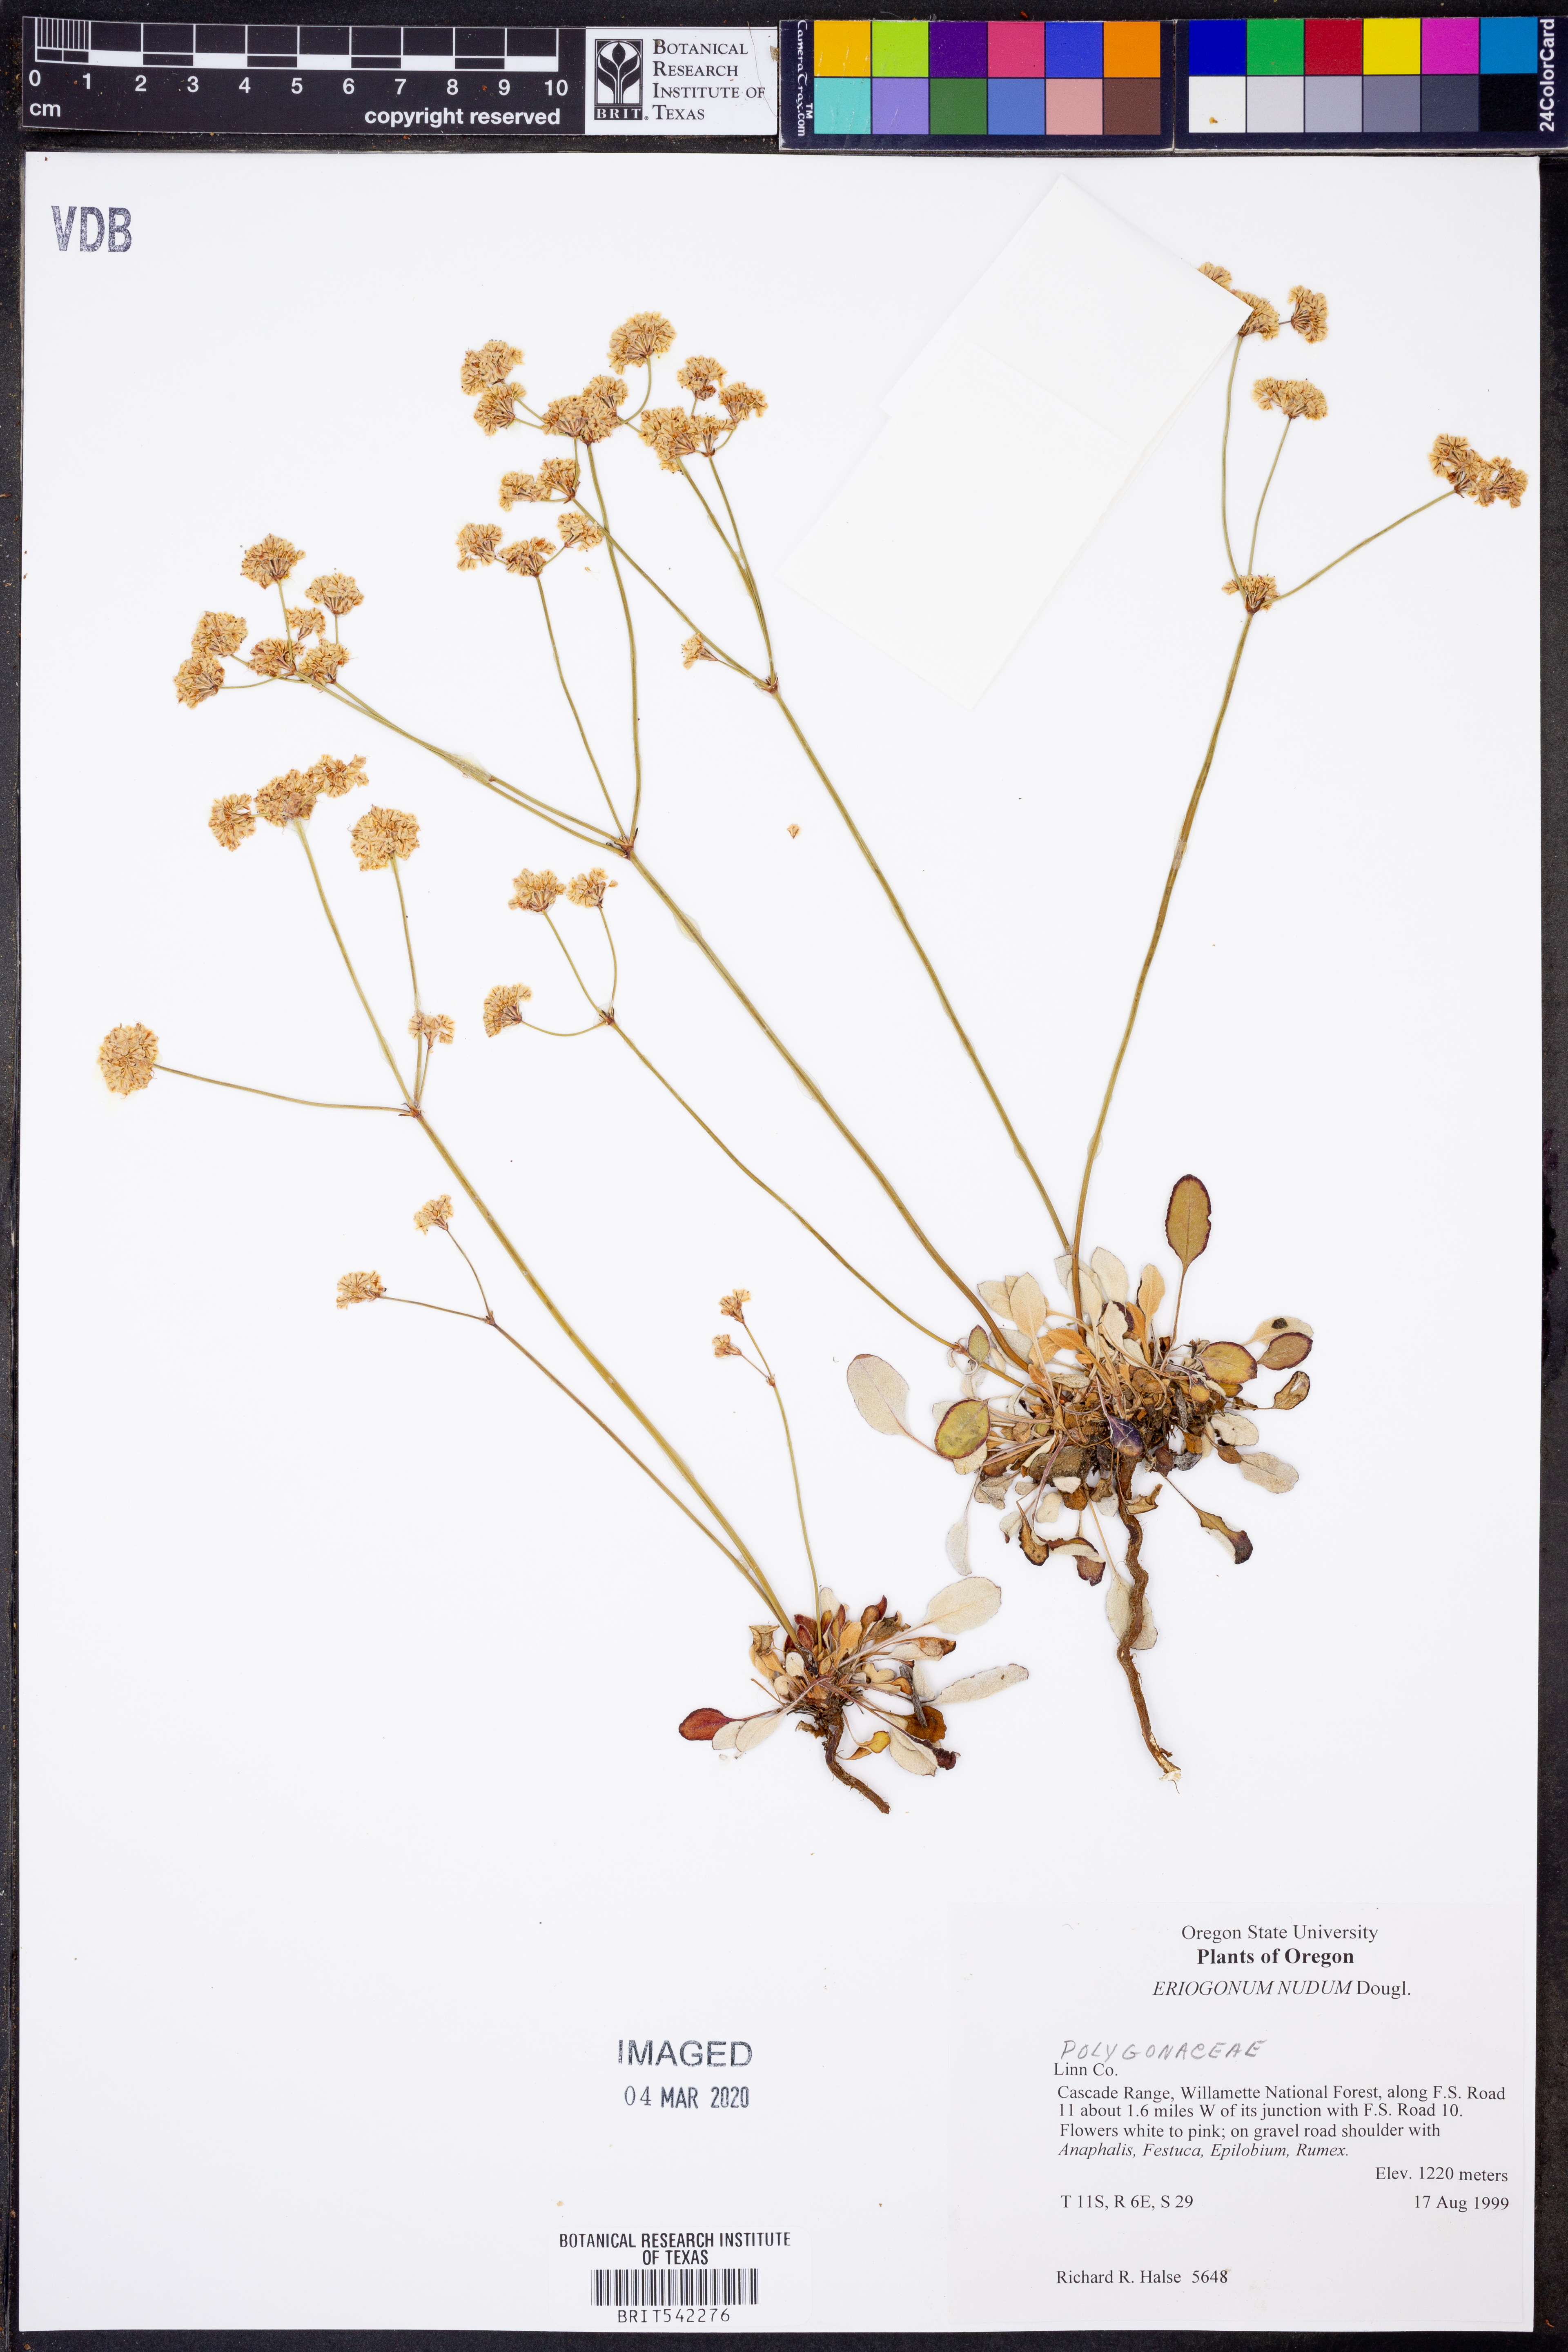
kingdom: Plantae
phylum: Tracheophyta
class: Magnoliopsida
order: Caryophyllales
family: Polygonaceae
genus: Eriogonum
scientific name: Eriogonum nudum
